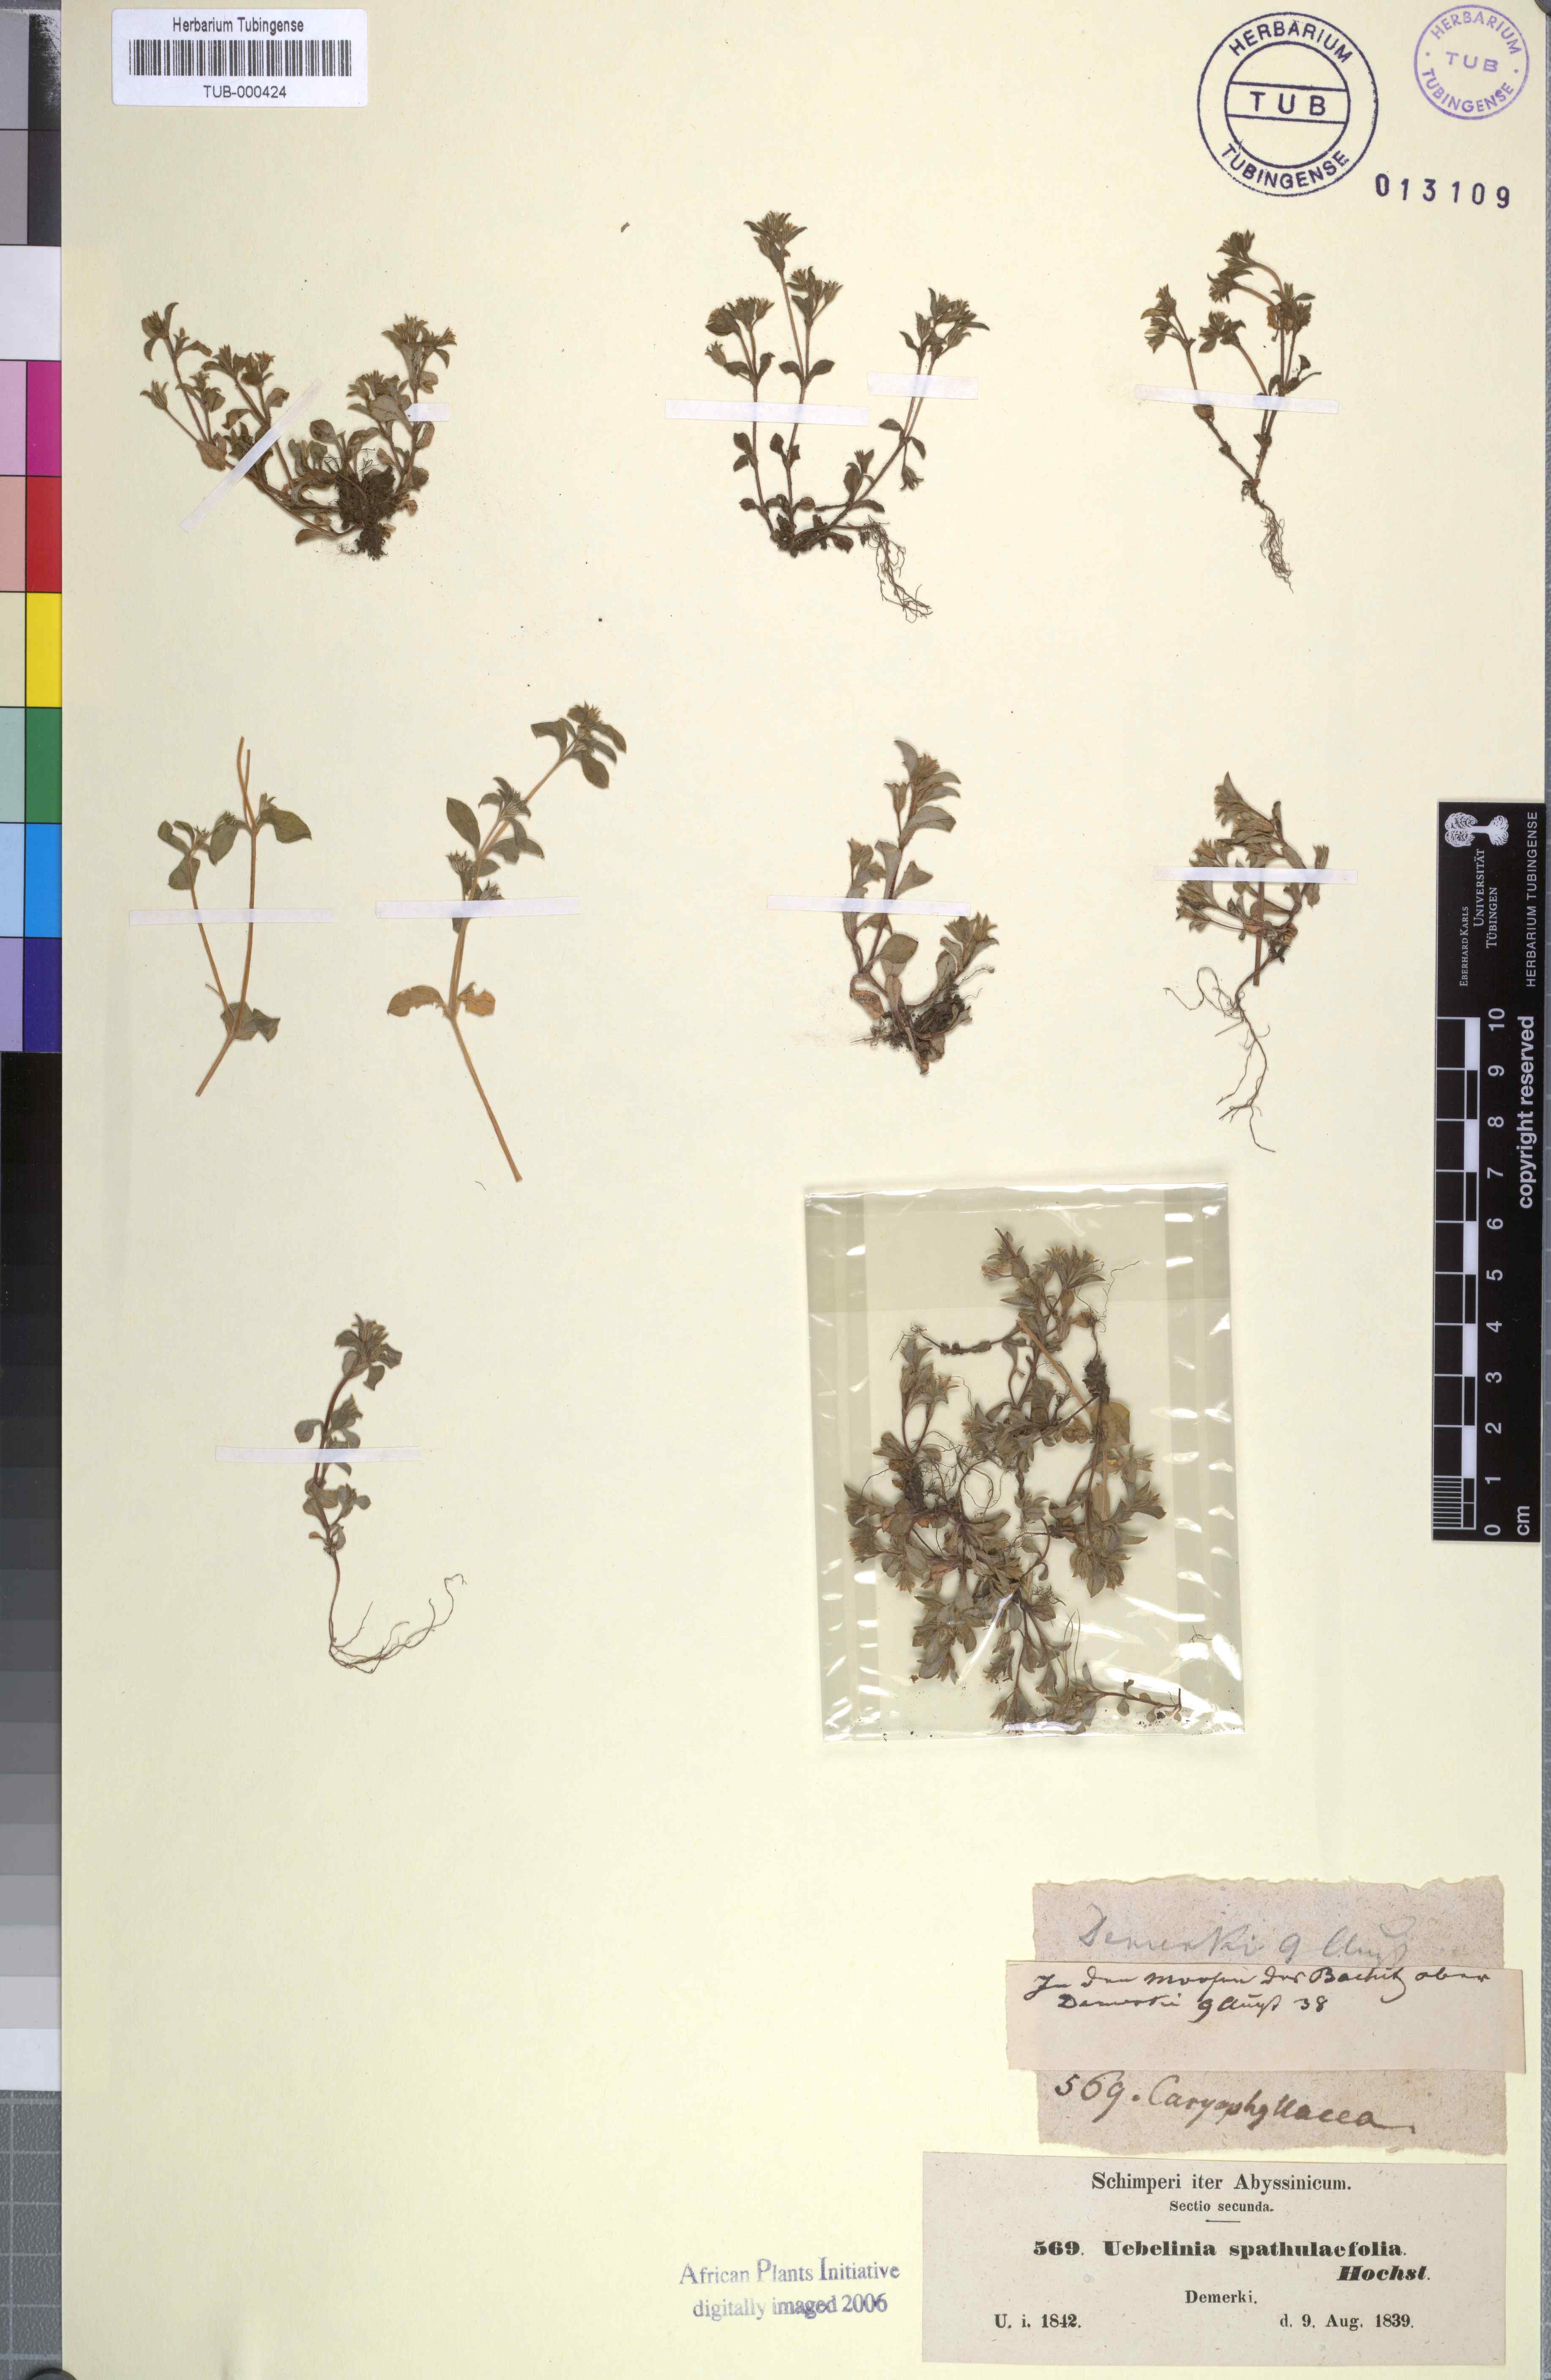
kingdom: Plantae
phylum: Tracheophyta
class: Magnoliopsida
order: Caryophyllales
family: Caryophyllaceae
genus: Silene
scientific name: Silene abyssinica
